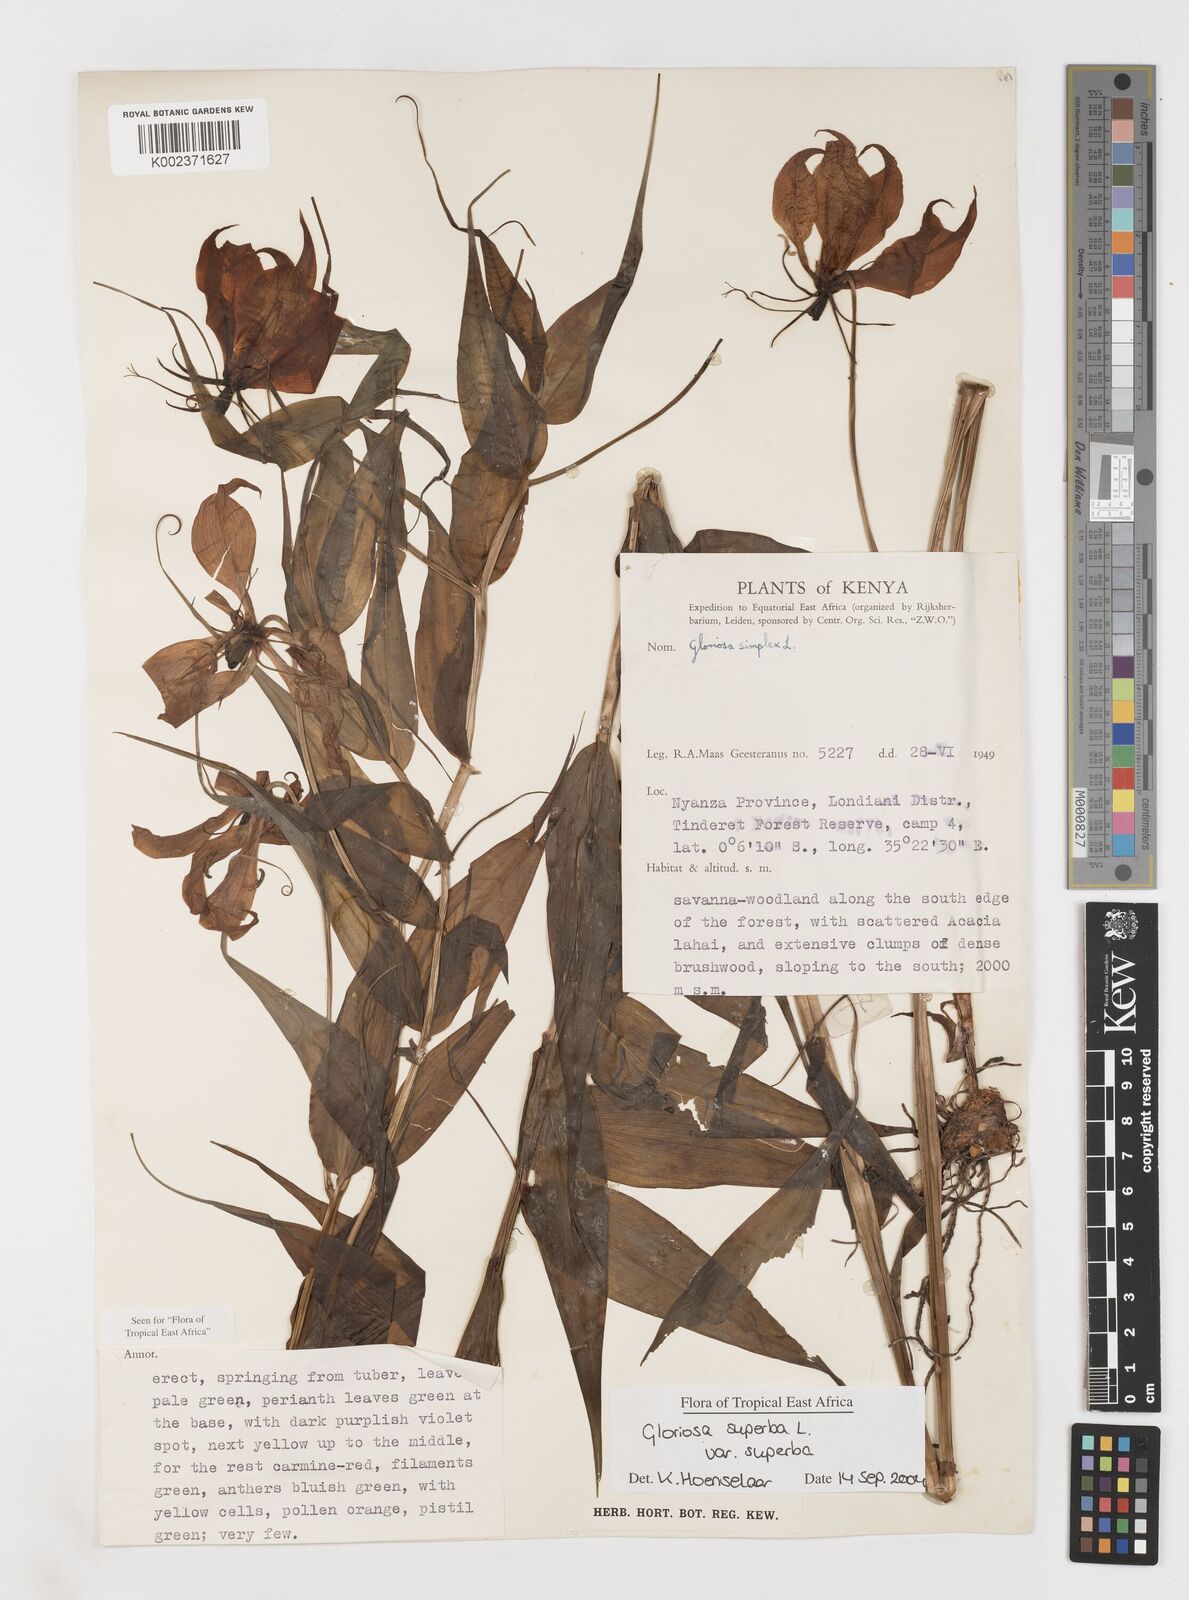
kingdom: Plantae
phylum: Tracheophyta
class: Liliopsida
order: Liliales
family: Colchicaceae
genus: Gloriosa
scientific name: Gloriosa simplex
